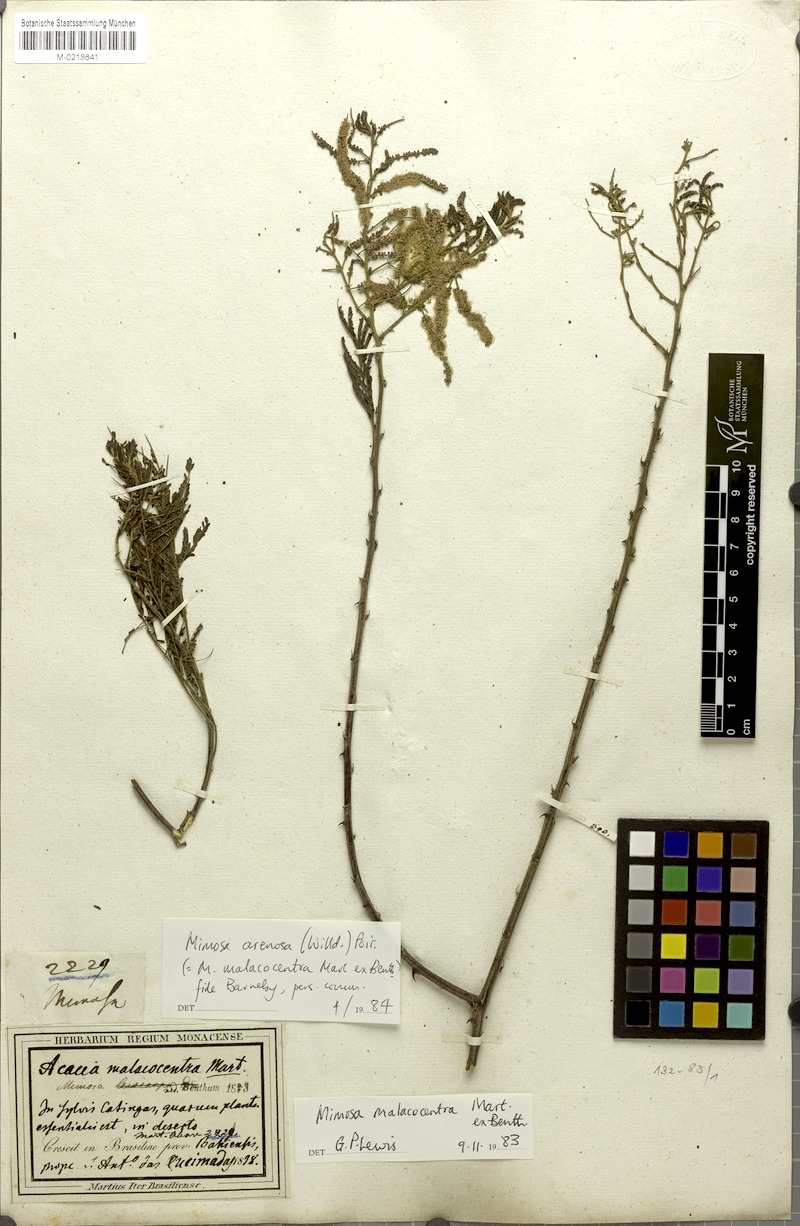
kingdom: Plantae
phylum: Tracheophyta
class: Magnoliopsida
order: Fabales
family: Fabaceae
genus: Mimosa
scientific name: Mimosa arenosa
